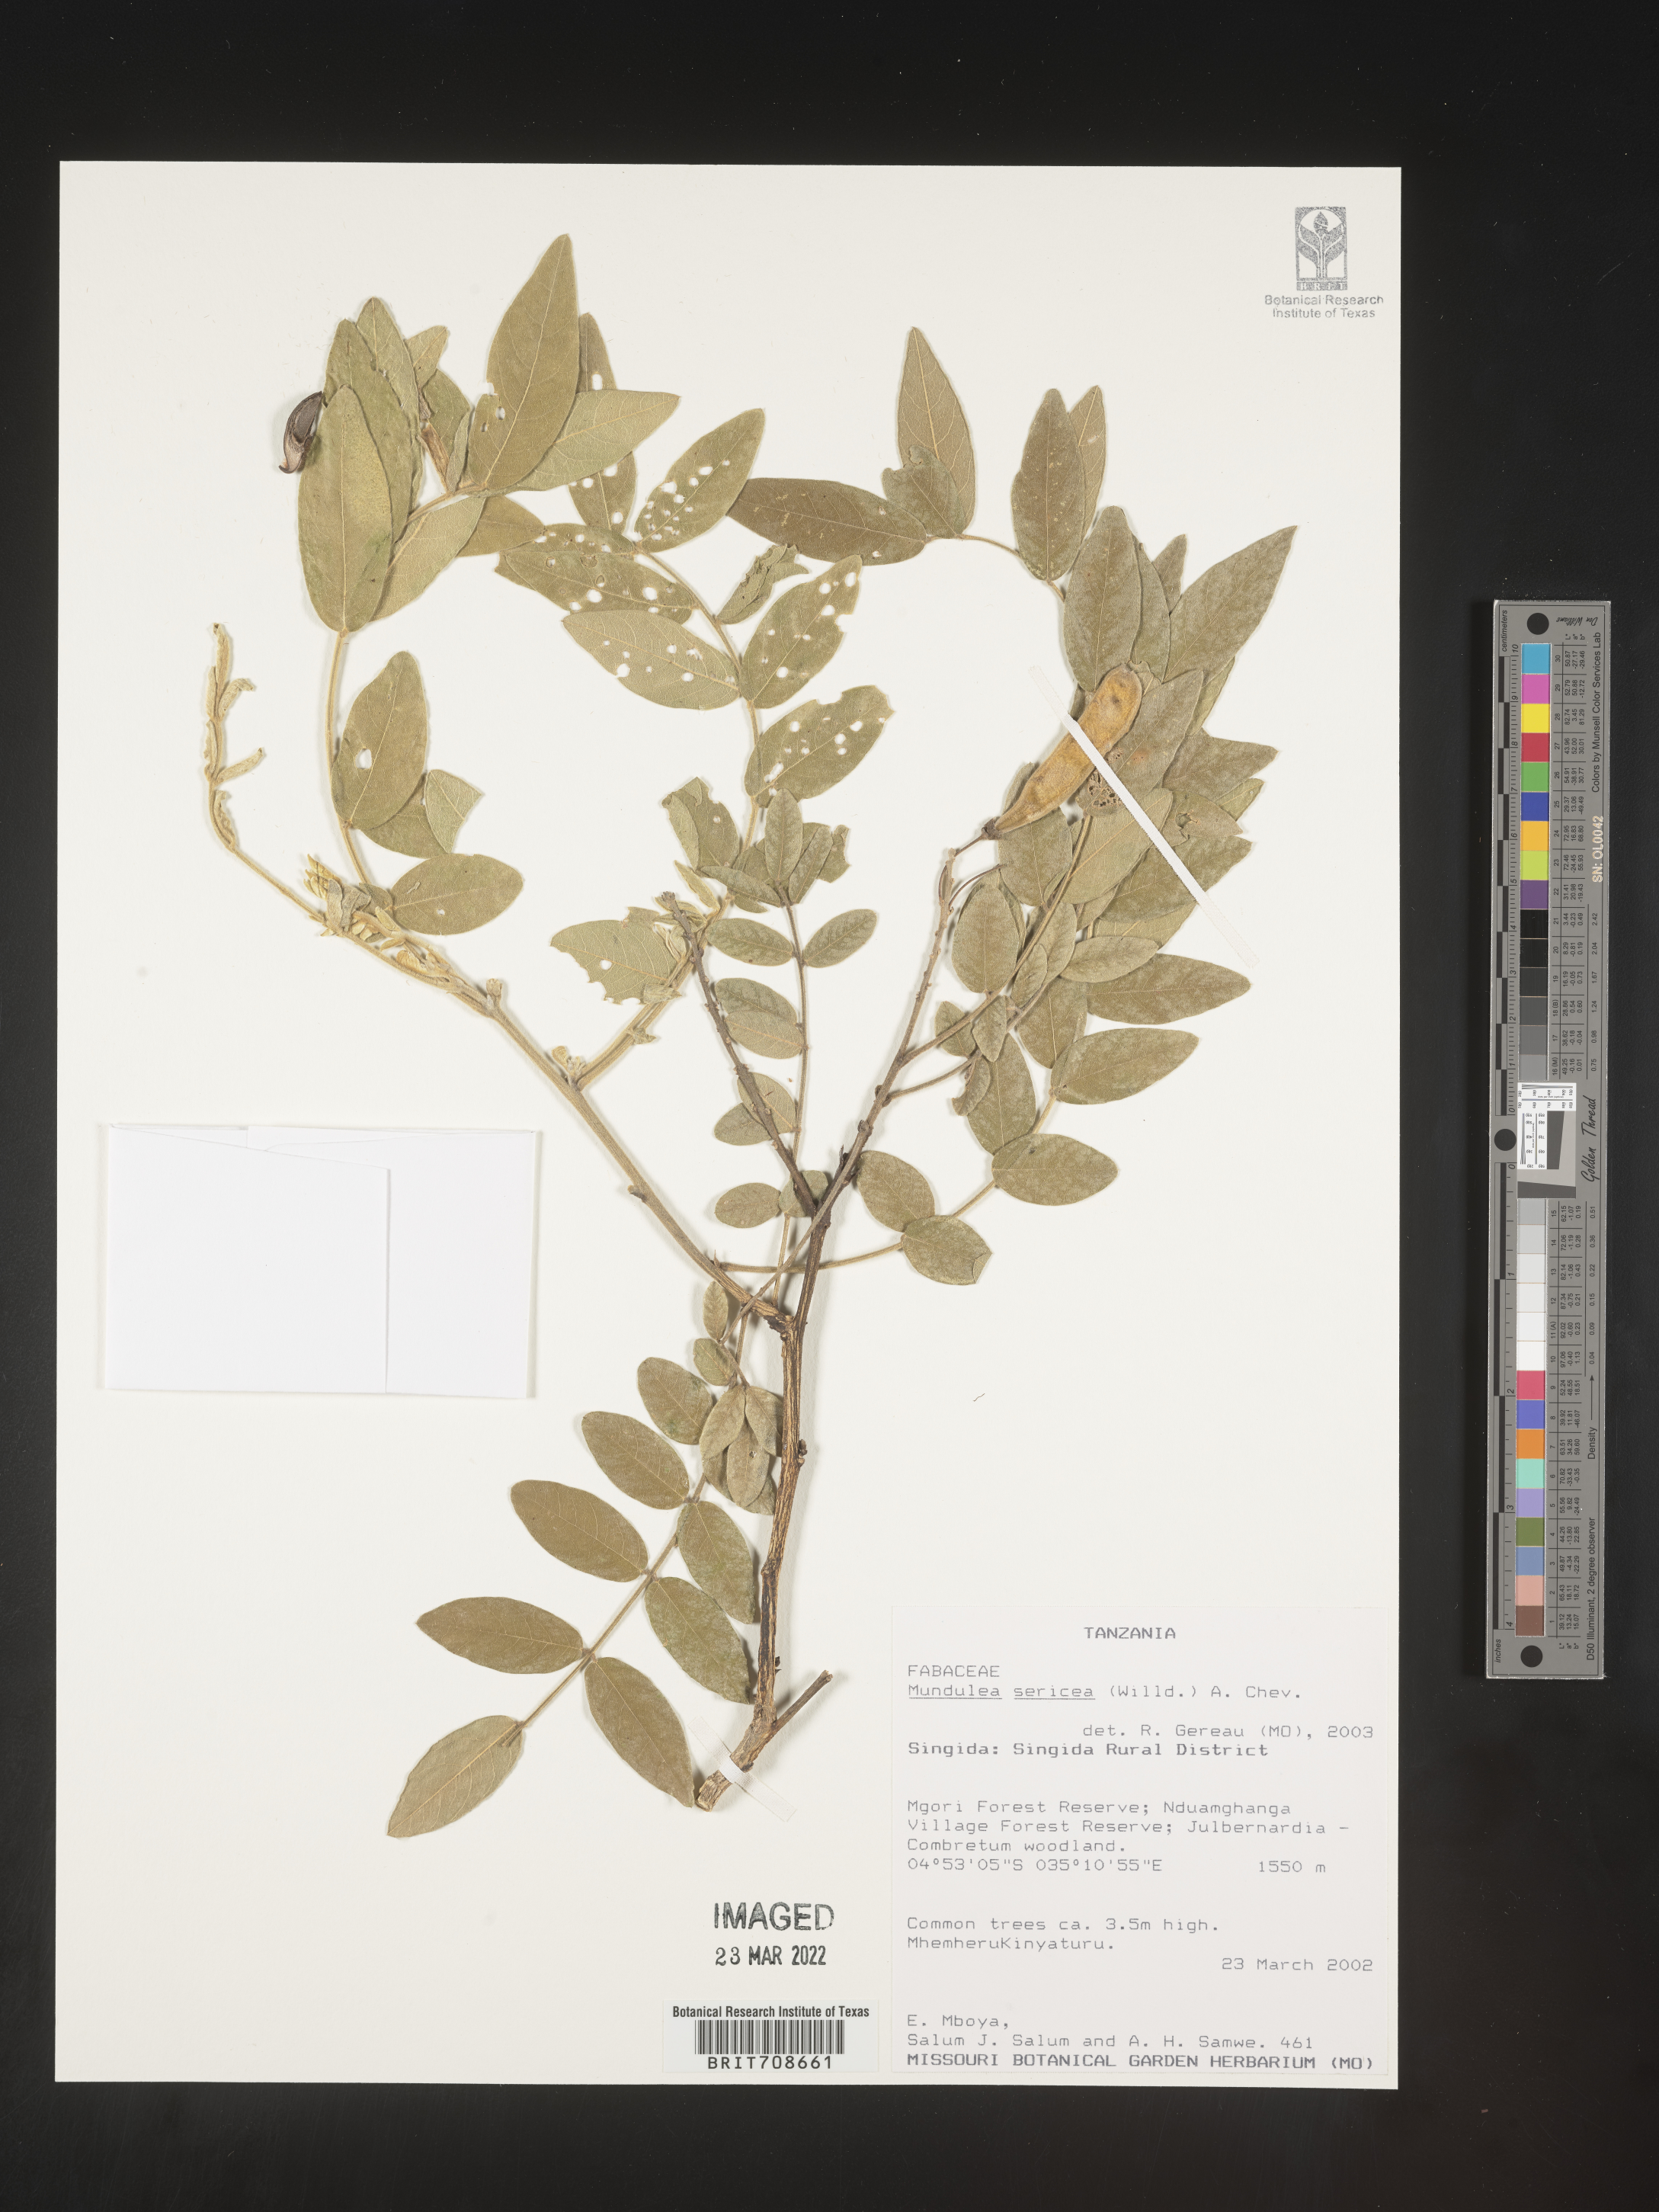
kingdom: Plantae
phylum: Tracheophyta
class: Magnoliopsida
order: Fabales
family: Fabaceae
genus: Mundulea
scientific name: Mundulea
